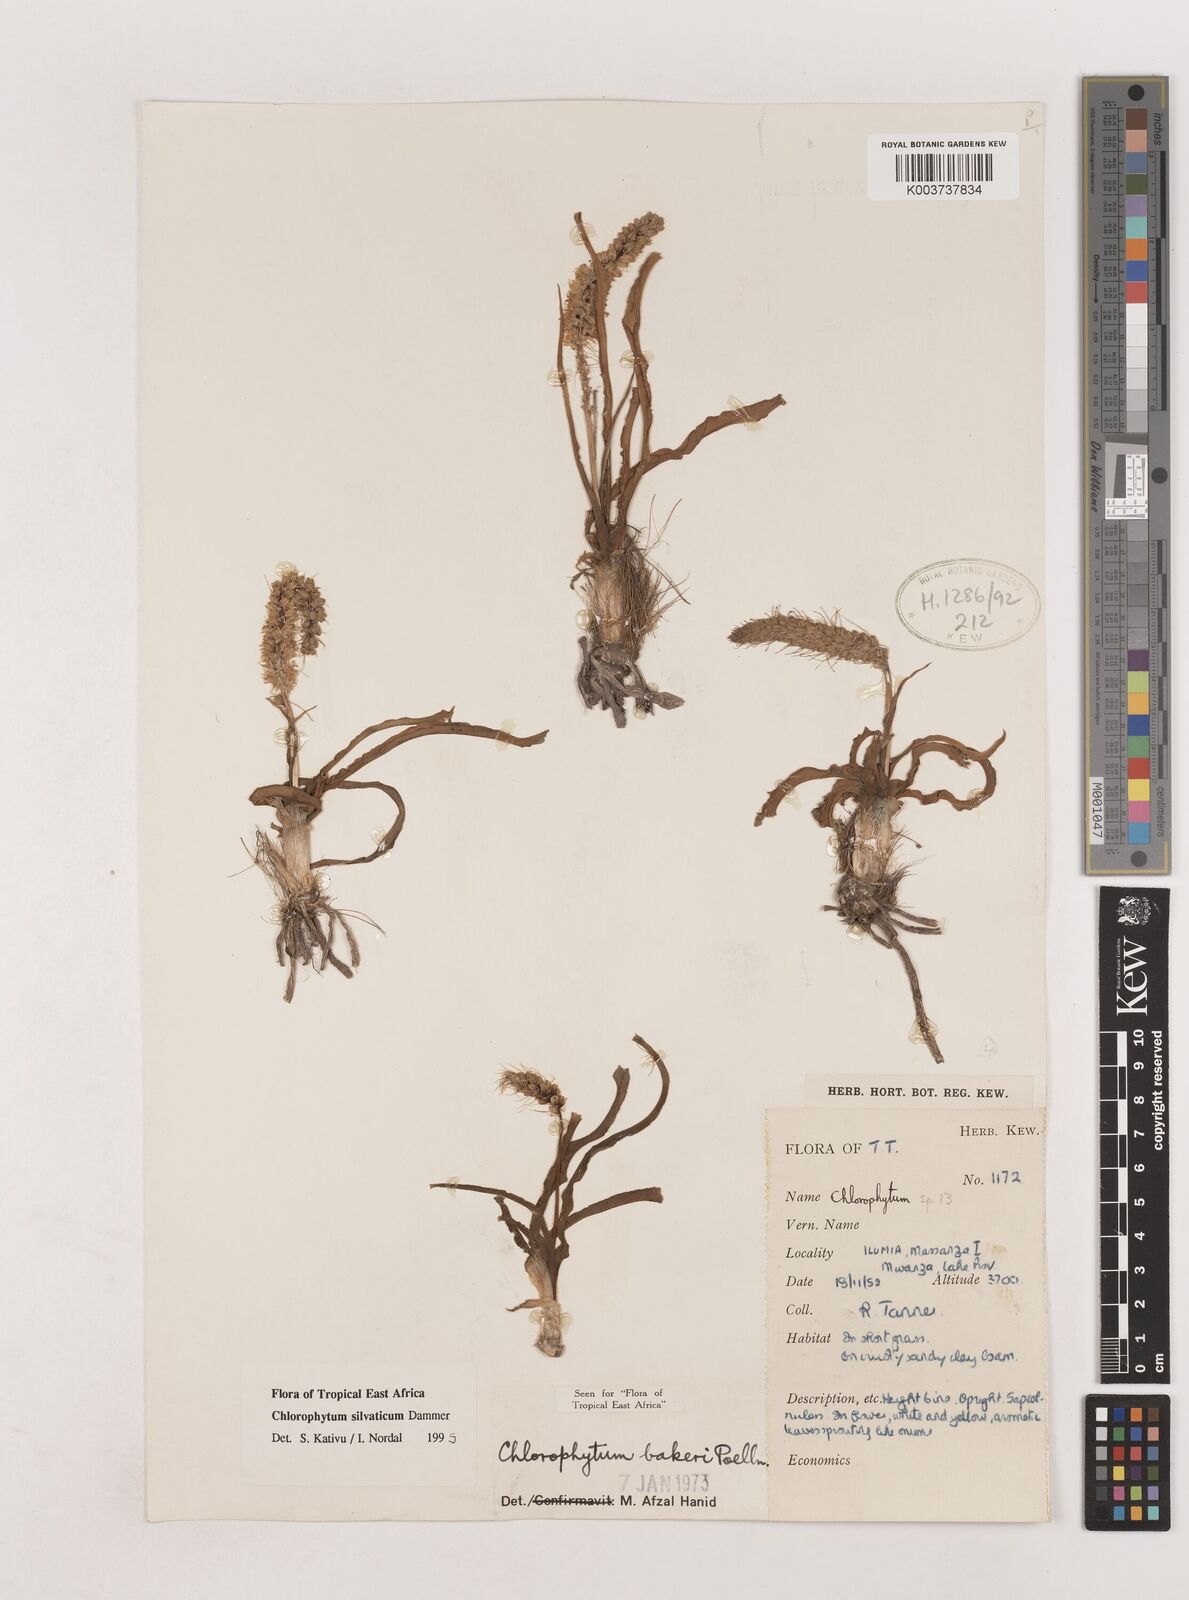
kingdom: Plantae
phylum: Tracheophyta
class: Liliopsida
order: Asparagales
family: Asparagaceae
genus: Chlorophytum
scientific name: Chlorophytum africanum
